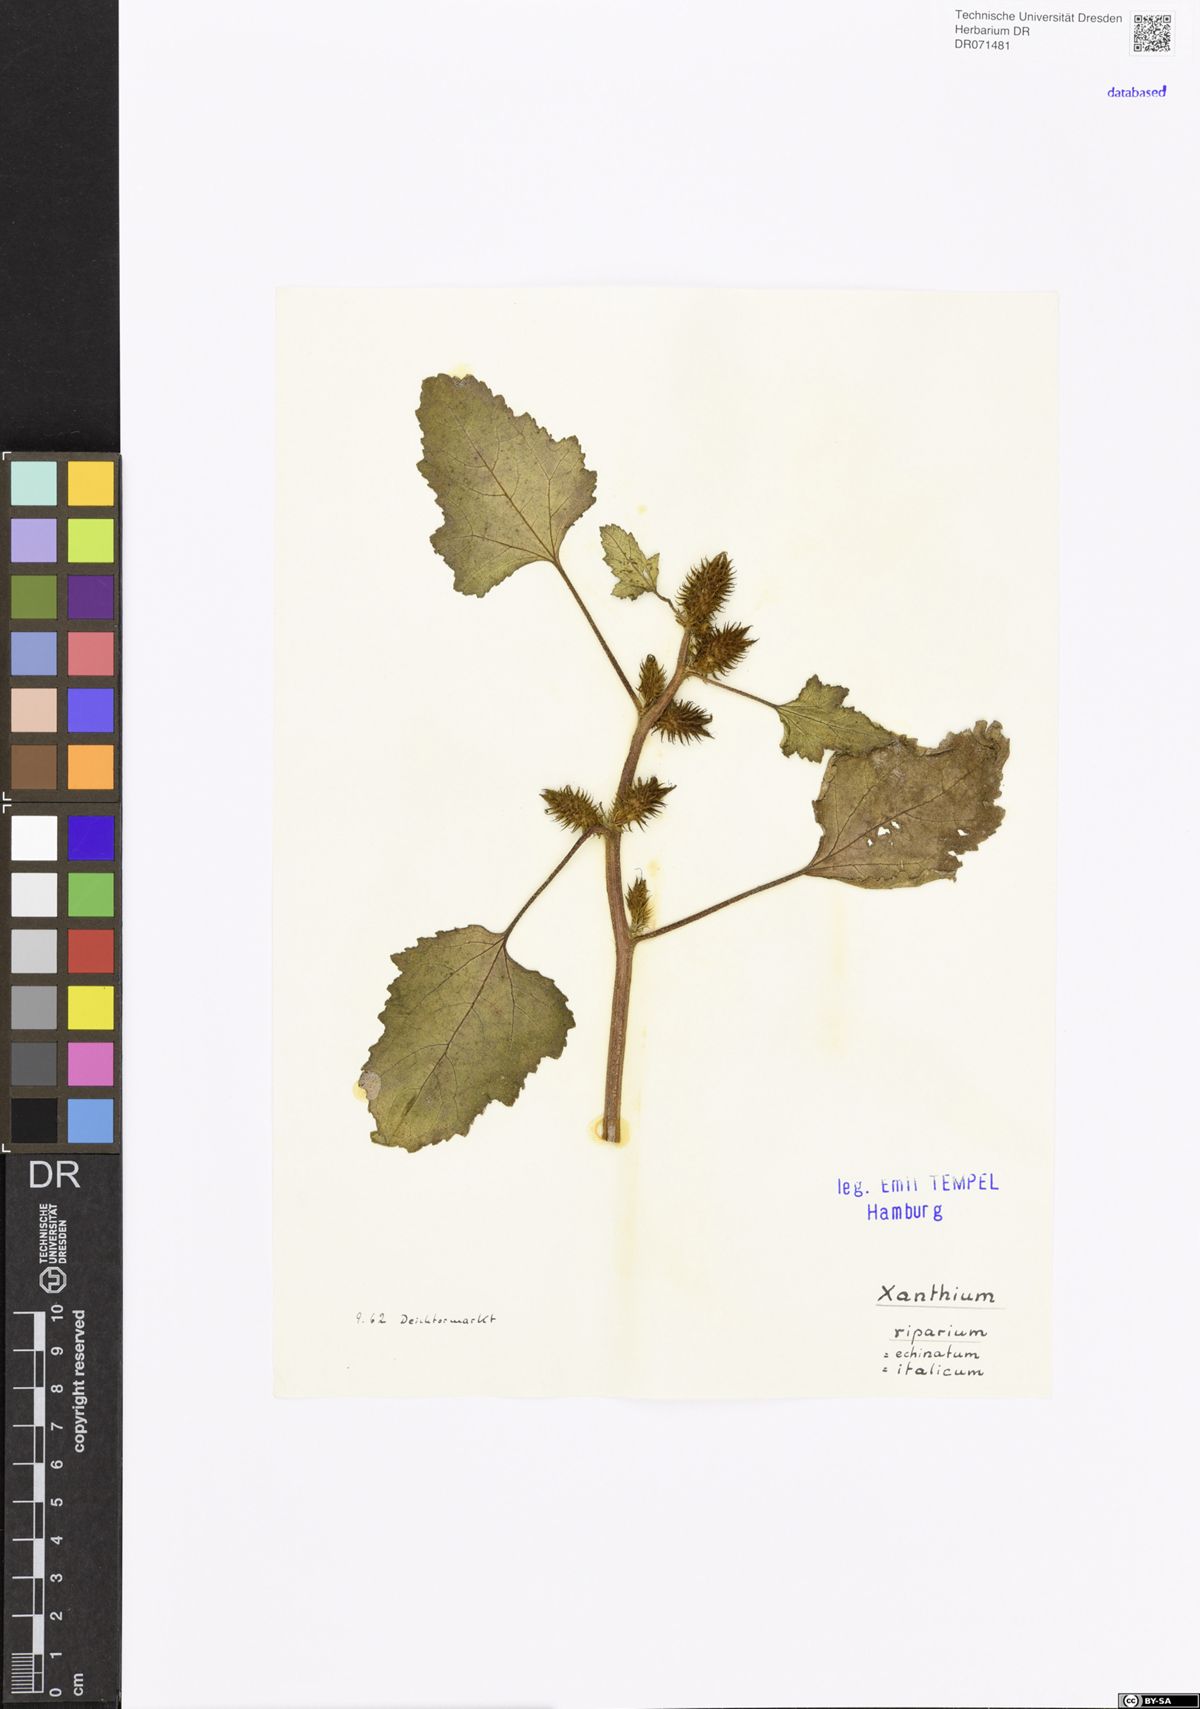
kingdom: Plantae
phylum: Tracheophyta
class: Magnoliopsida
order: Asterales
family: Asteraceae
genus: Xanthium
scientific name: Xanthium orientale
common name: Californian burr
